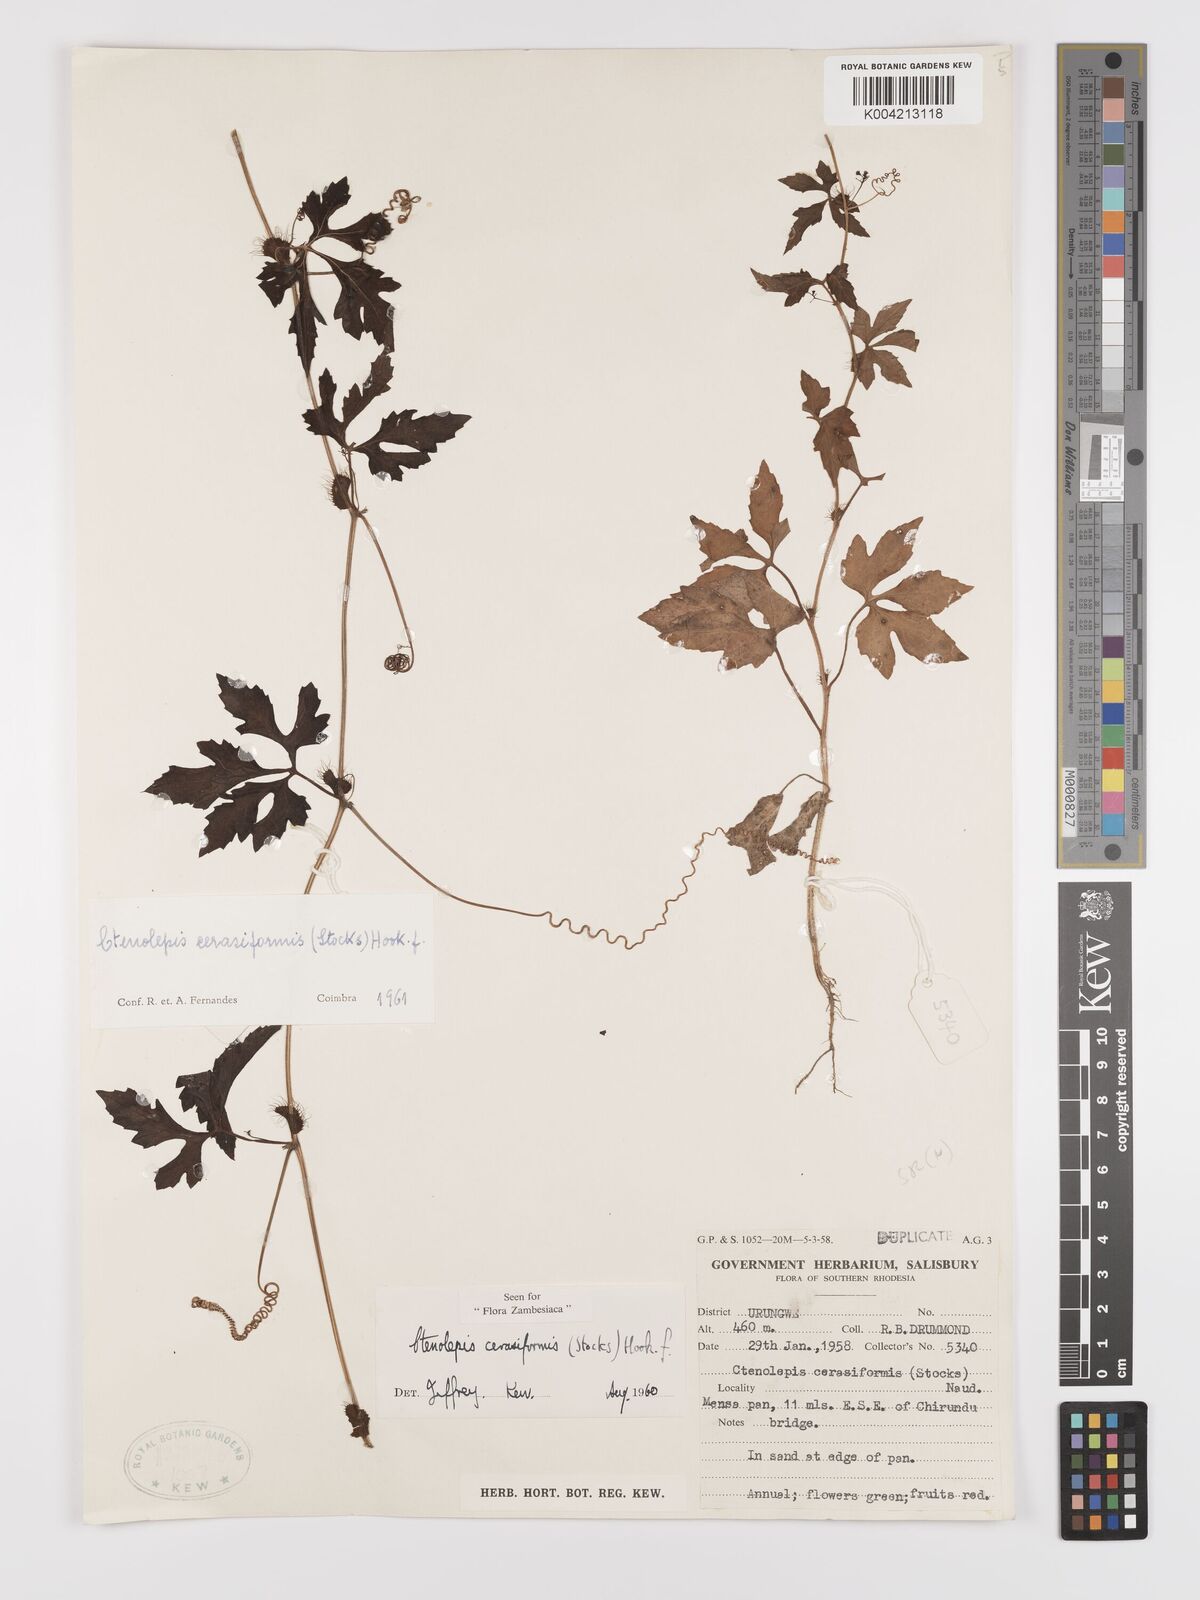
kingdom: Plantae
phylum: Tracheophyta
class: Magnoliopsida
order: Cucurbitales
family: Cucurbitaceae
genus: Blastania
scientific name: Blastania cerasiformis
